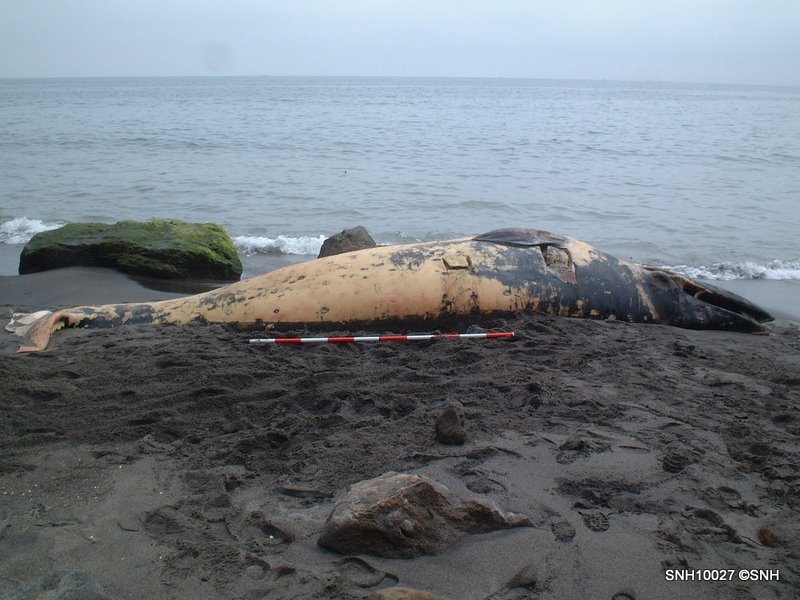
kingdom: Animalia
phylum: Chordata
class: Mammalia
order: Cetacea
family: Balaenopteridae
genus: Balaenoptera
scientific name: Balaenoptera
